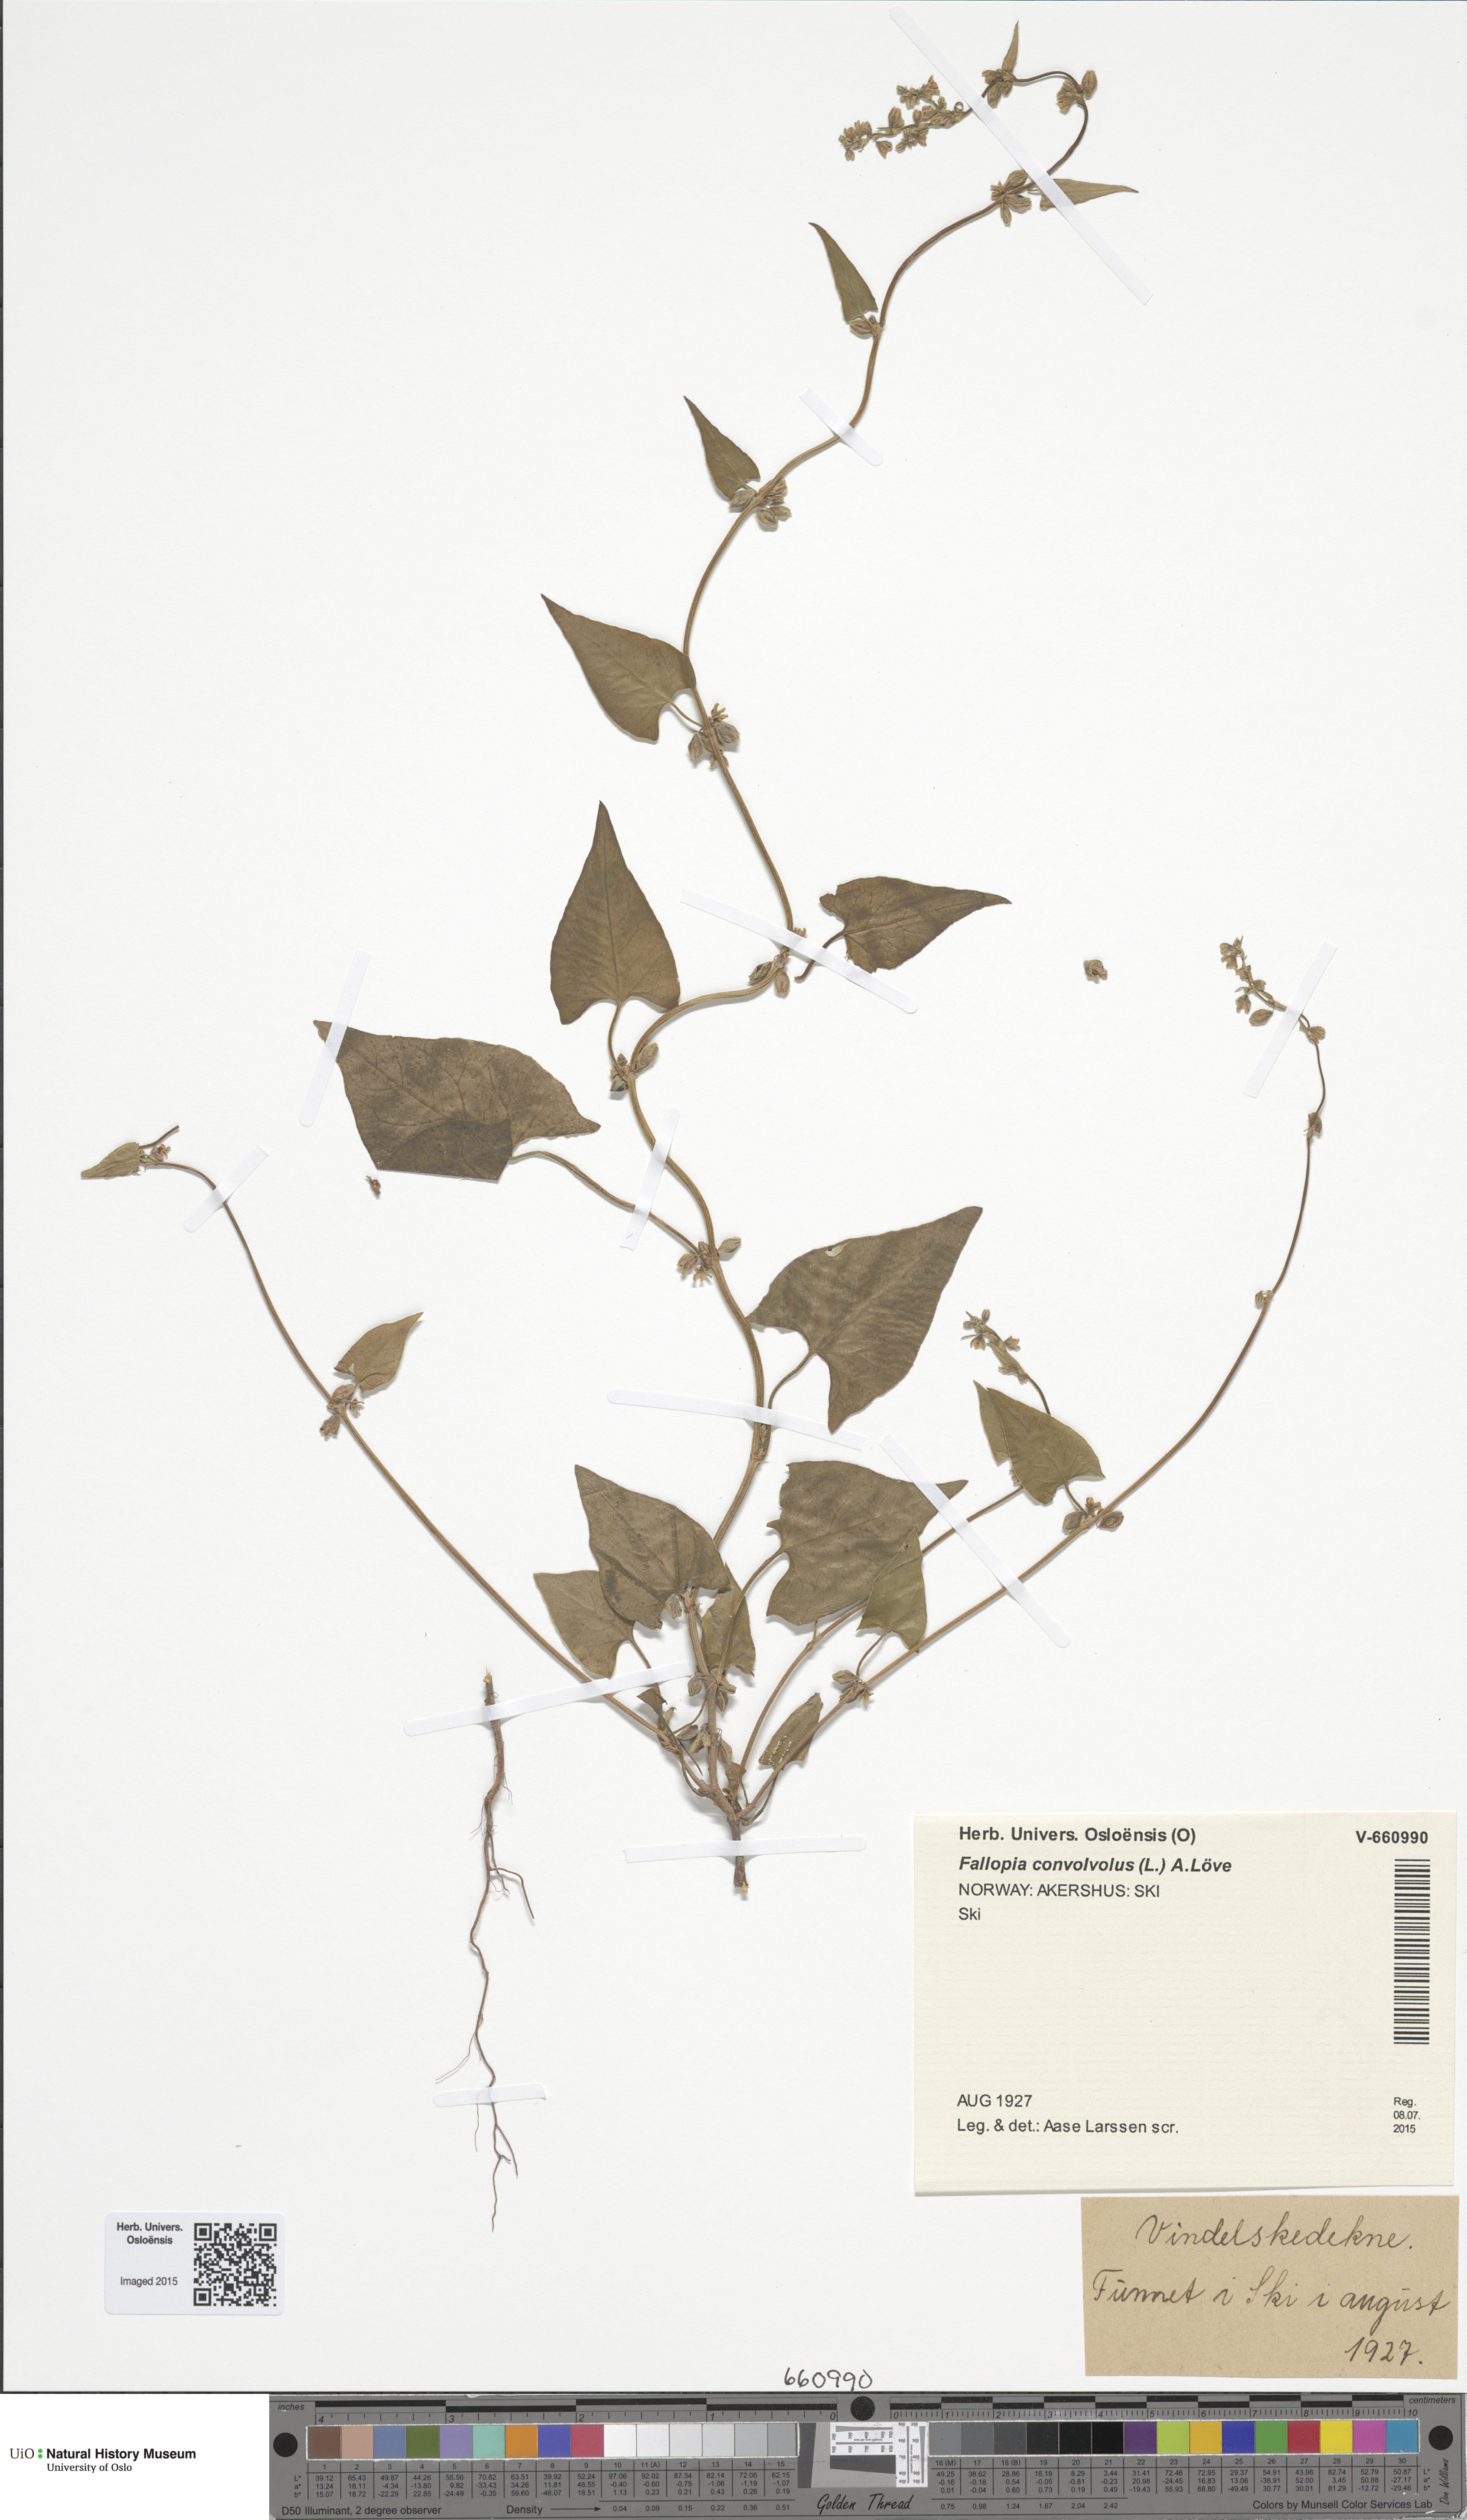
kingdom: Plantae
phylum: Tracheophyta
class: Magnoliopsida
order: Caryophyllales
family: Polygonaceae
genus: Fallopia
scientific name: Fallopia convolvulus
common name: Black bindweed
